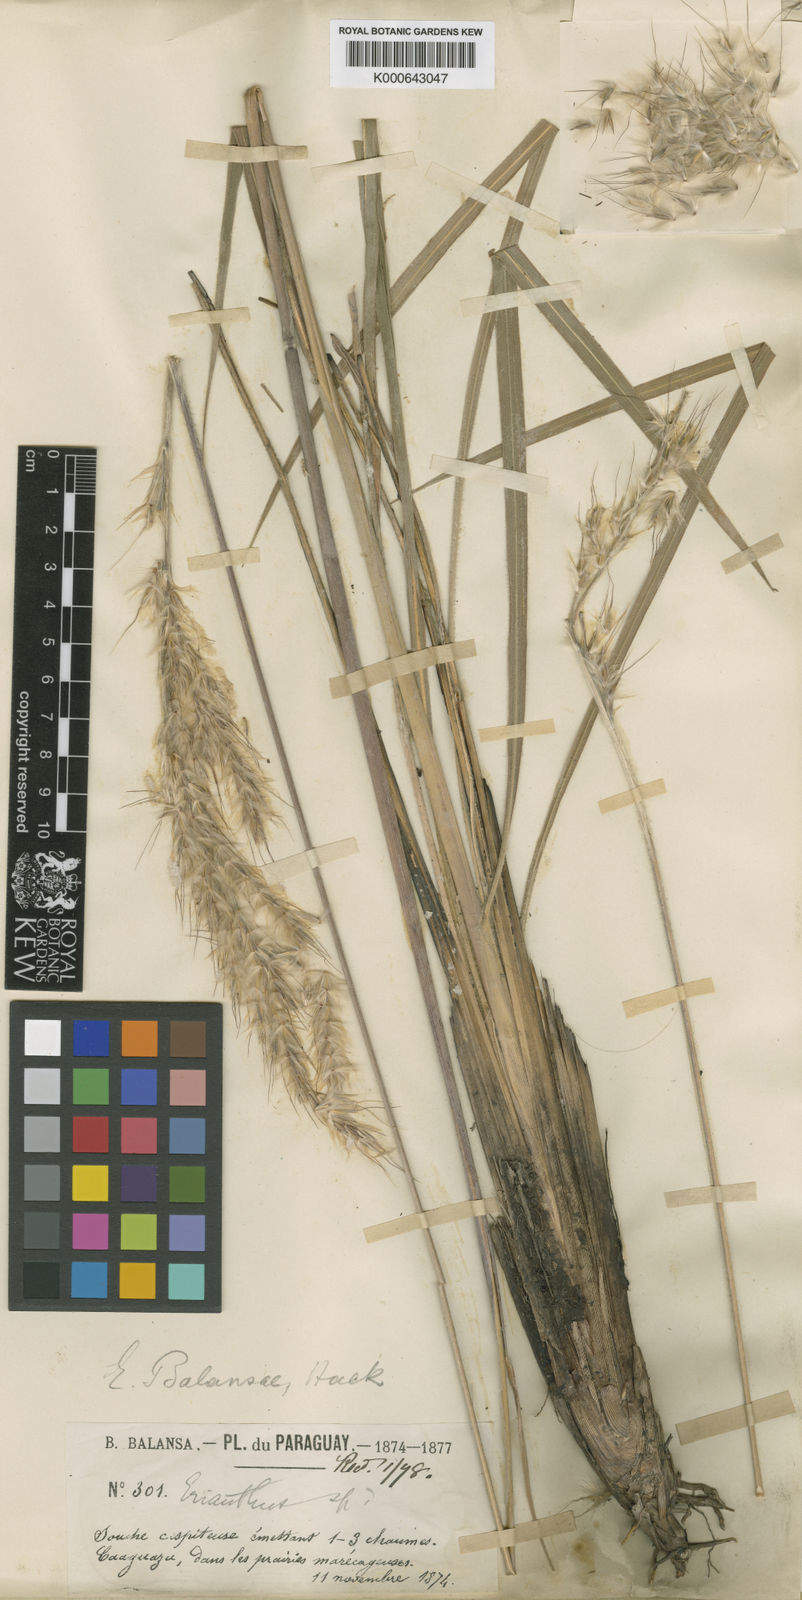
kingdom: Plantae
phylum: Tracheophyta
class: Liliopsida
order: Poales
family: Poaceae
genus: Erianthus
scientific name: Erianthus trinii
